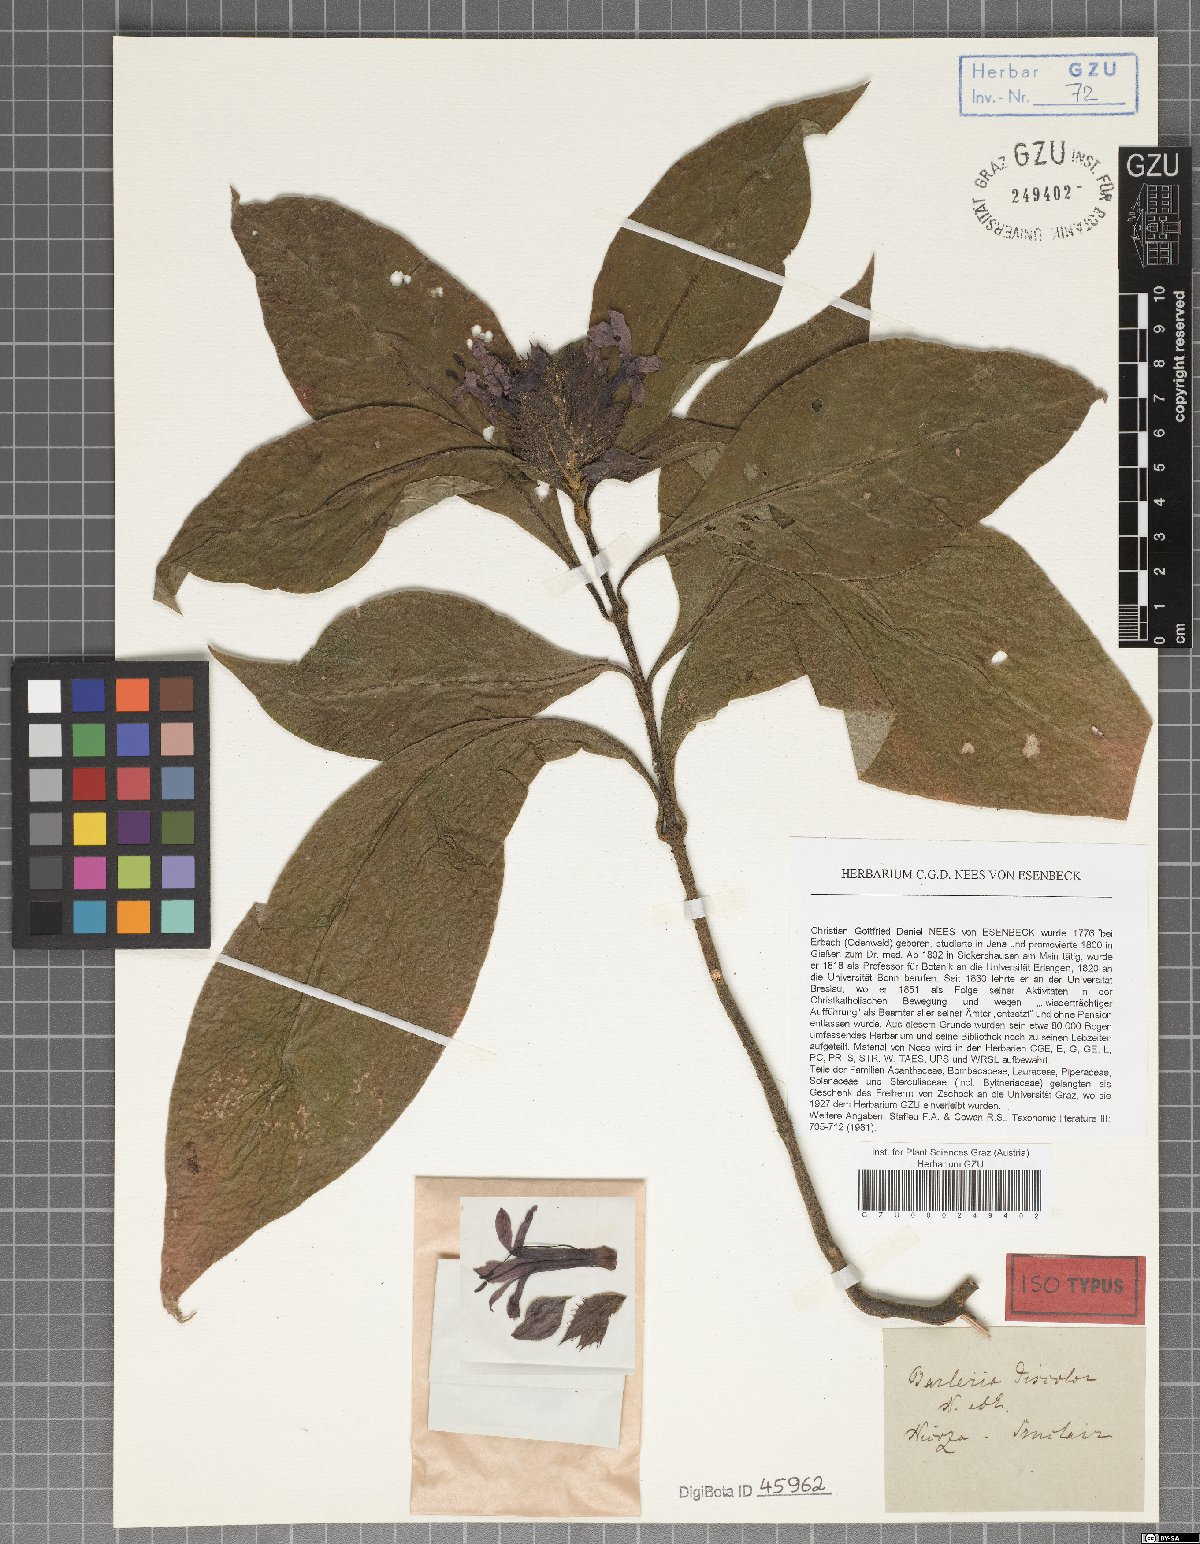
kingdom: Plantae
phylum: Tracheophyta
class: Magnoliopsida
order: Lamiales
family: Acanthaceae
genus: Barleria
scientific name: Barleria oenotheroides
